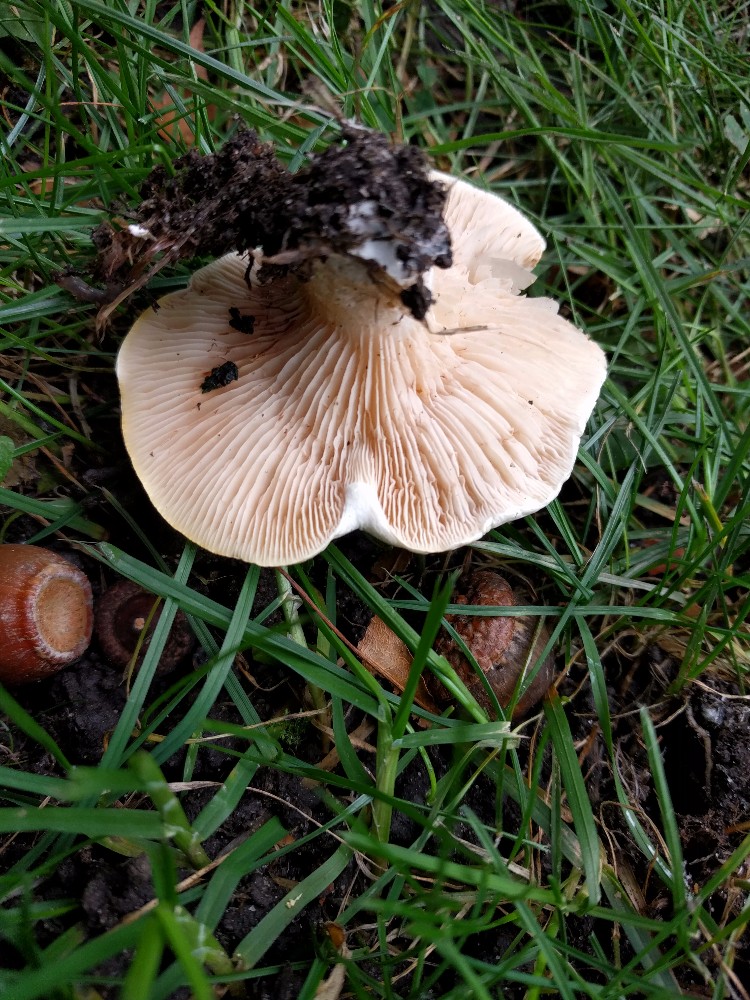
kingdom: Fungi
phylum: Basidiomycota
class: Agaricomycetes
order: Agaricales
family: Entolomataceae
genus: Clitopilus
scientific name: Clitopilus prunulus
